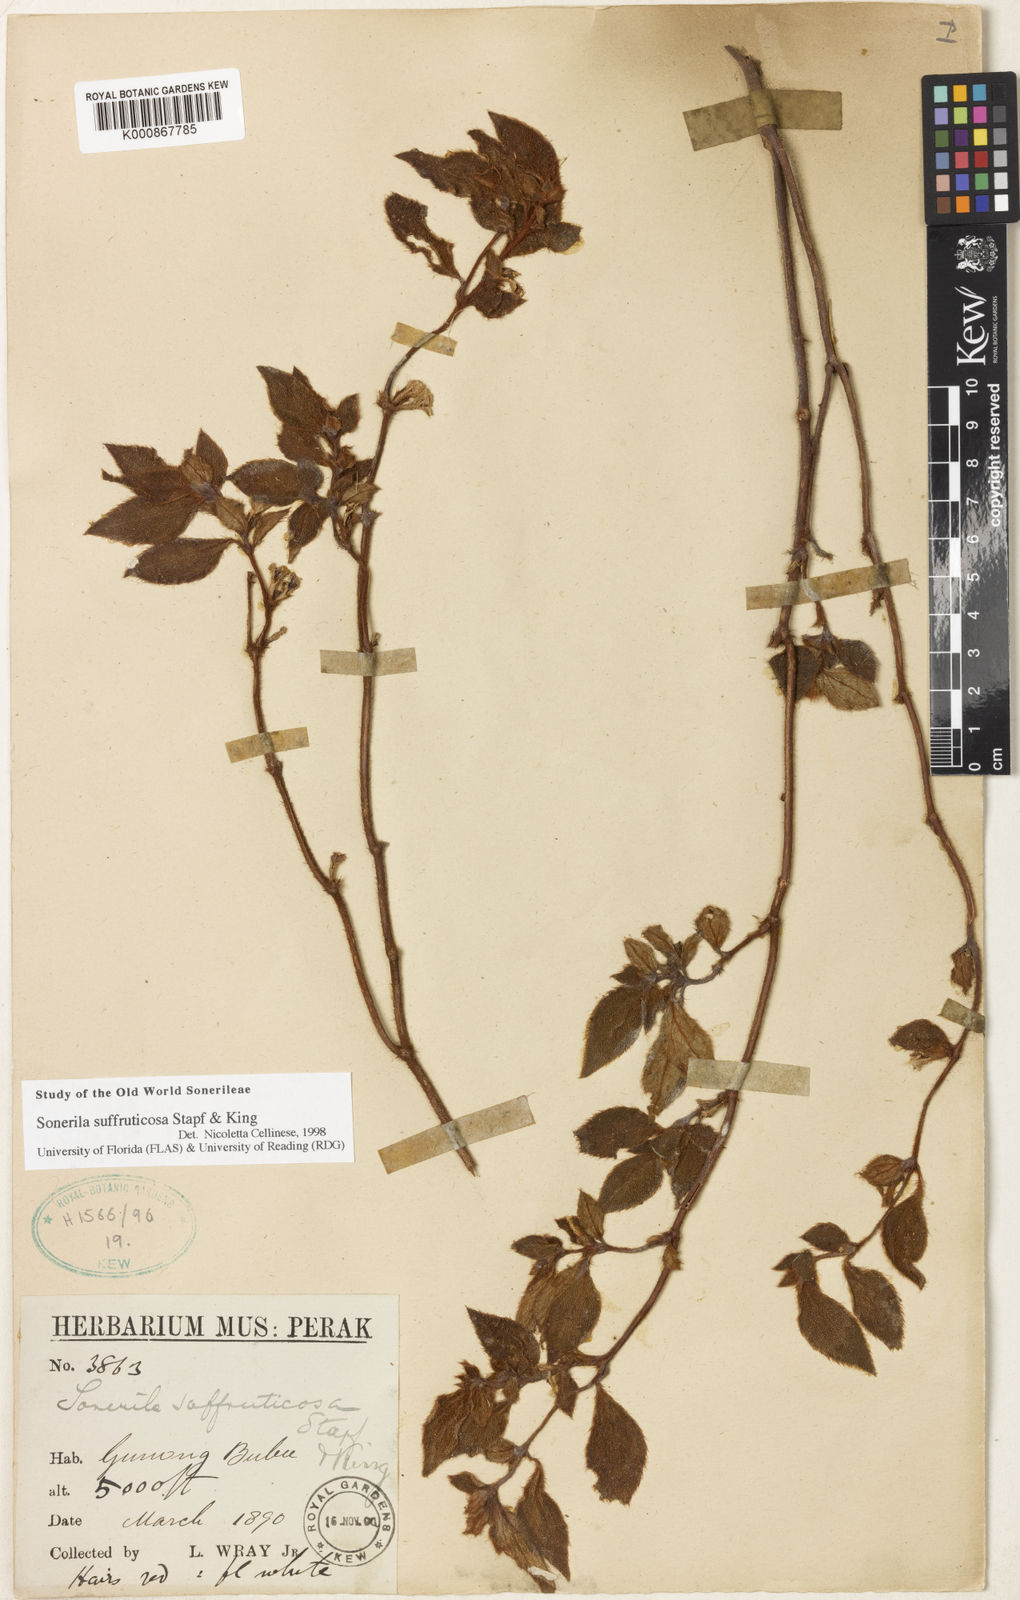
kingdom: Plantae
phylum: Tracheophyta
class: Magnoliopsida
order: Myrtales
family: Melastomataceae
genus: Sonerila
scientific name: Sonerila suffruticosa
